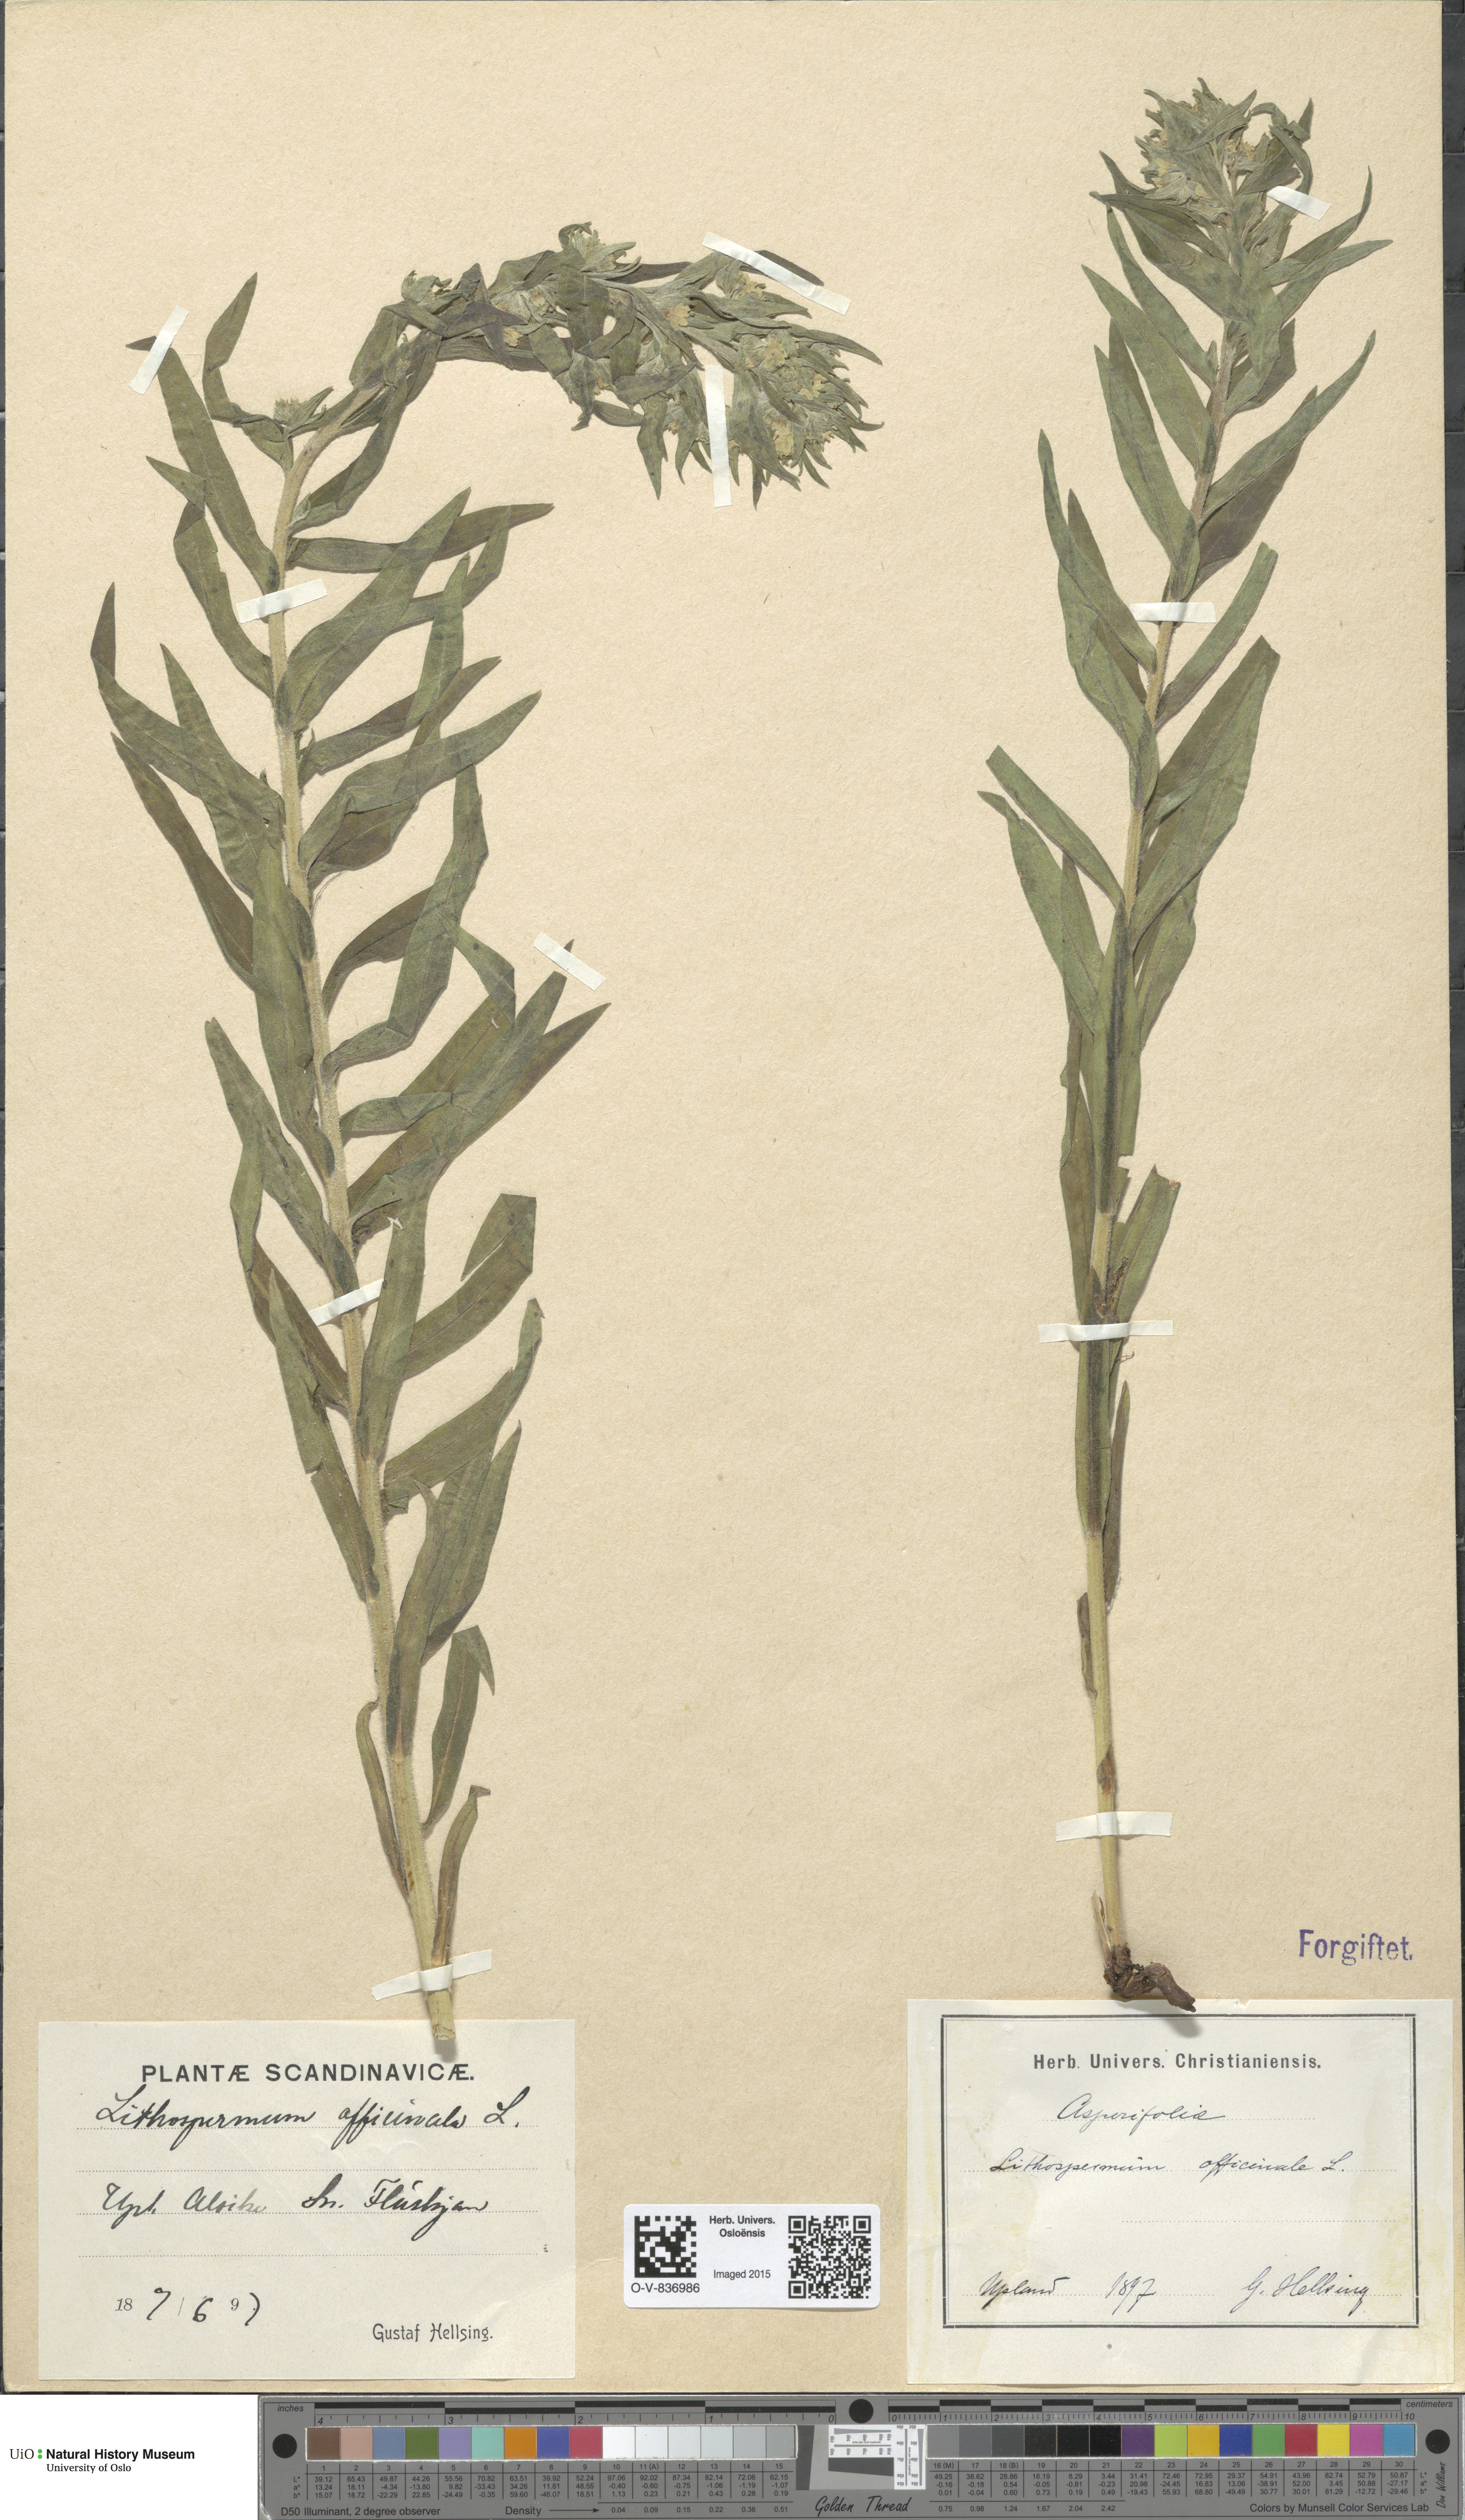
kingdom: Plantae
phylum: Tracheophyta
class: Magnoliopsida
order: Boraginales
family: Boraginaceae
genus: Lithospermum
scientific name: Lithospermum officinale
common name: Common gromwell
